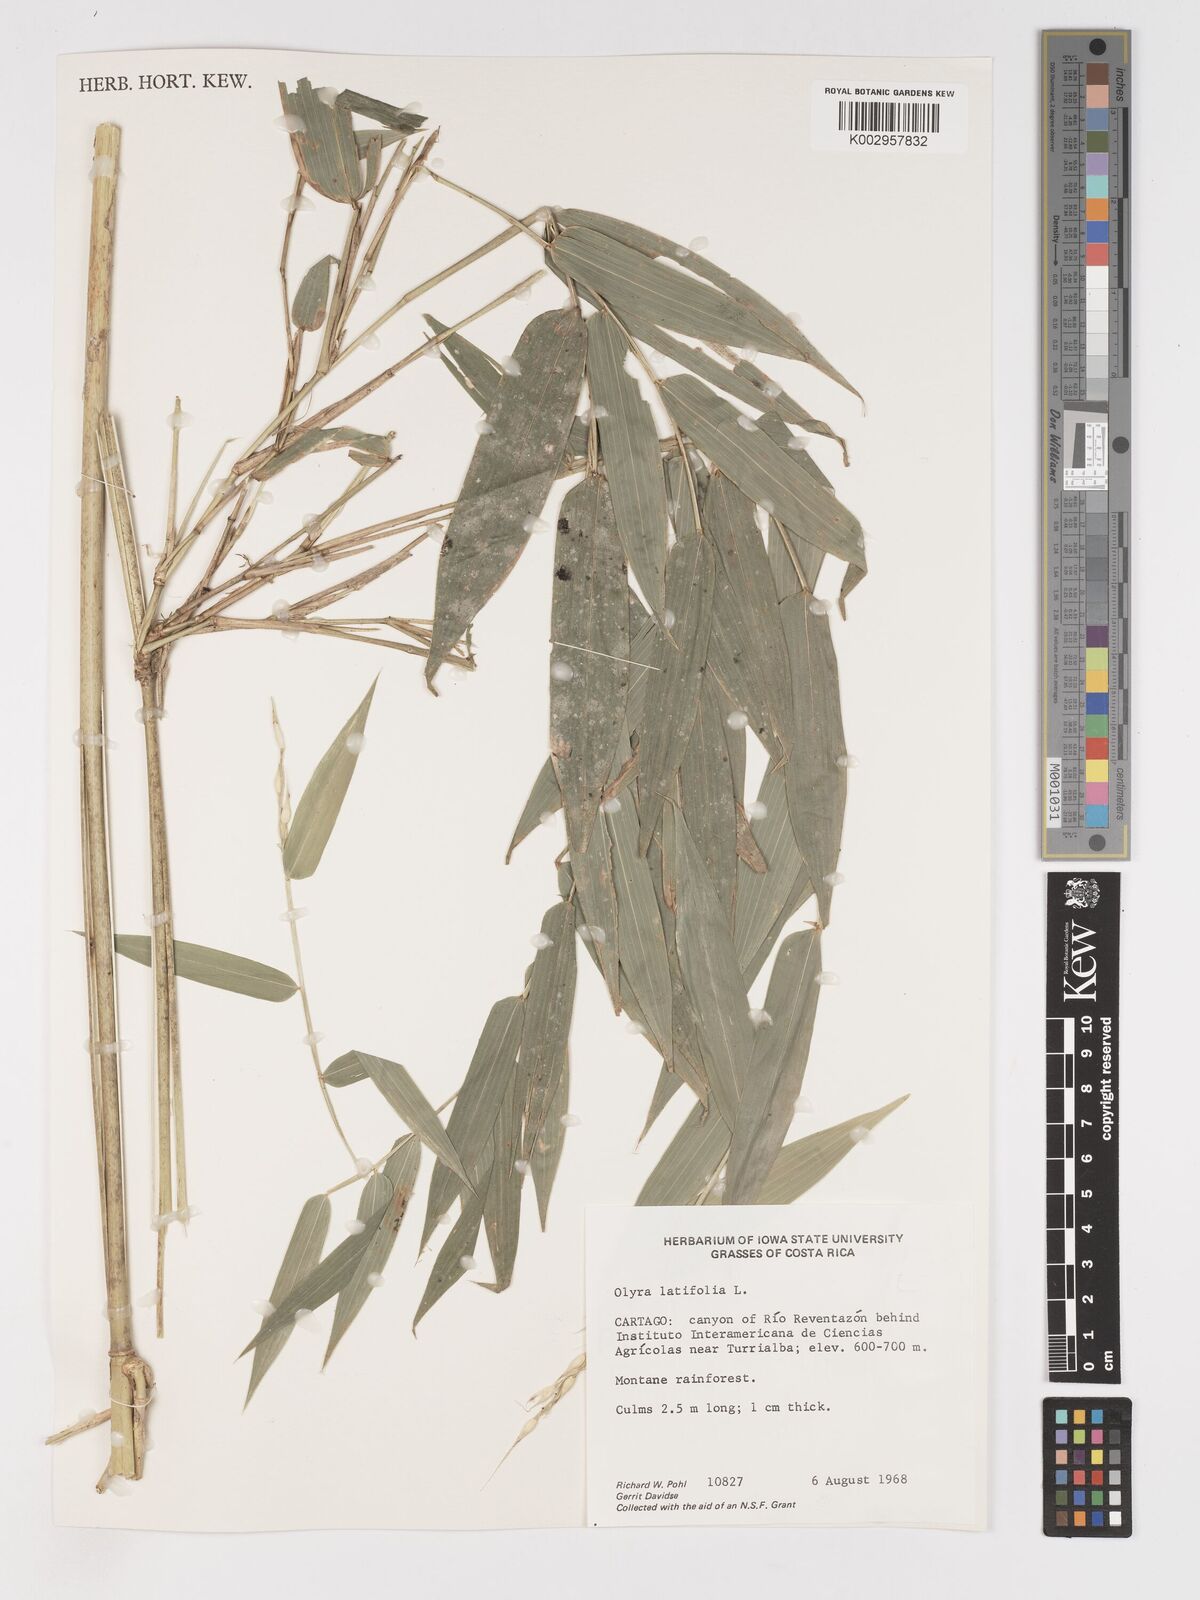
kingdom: Plantae
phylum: Tracheophyta
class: Liliopsida
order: Poales
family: Poaceae
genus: Olyra
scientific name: Olyra latifolia
